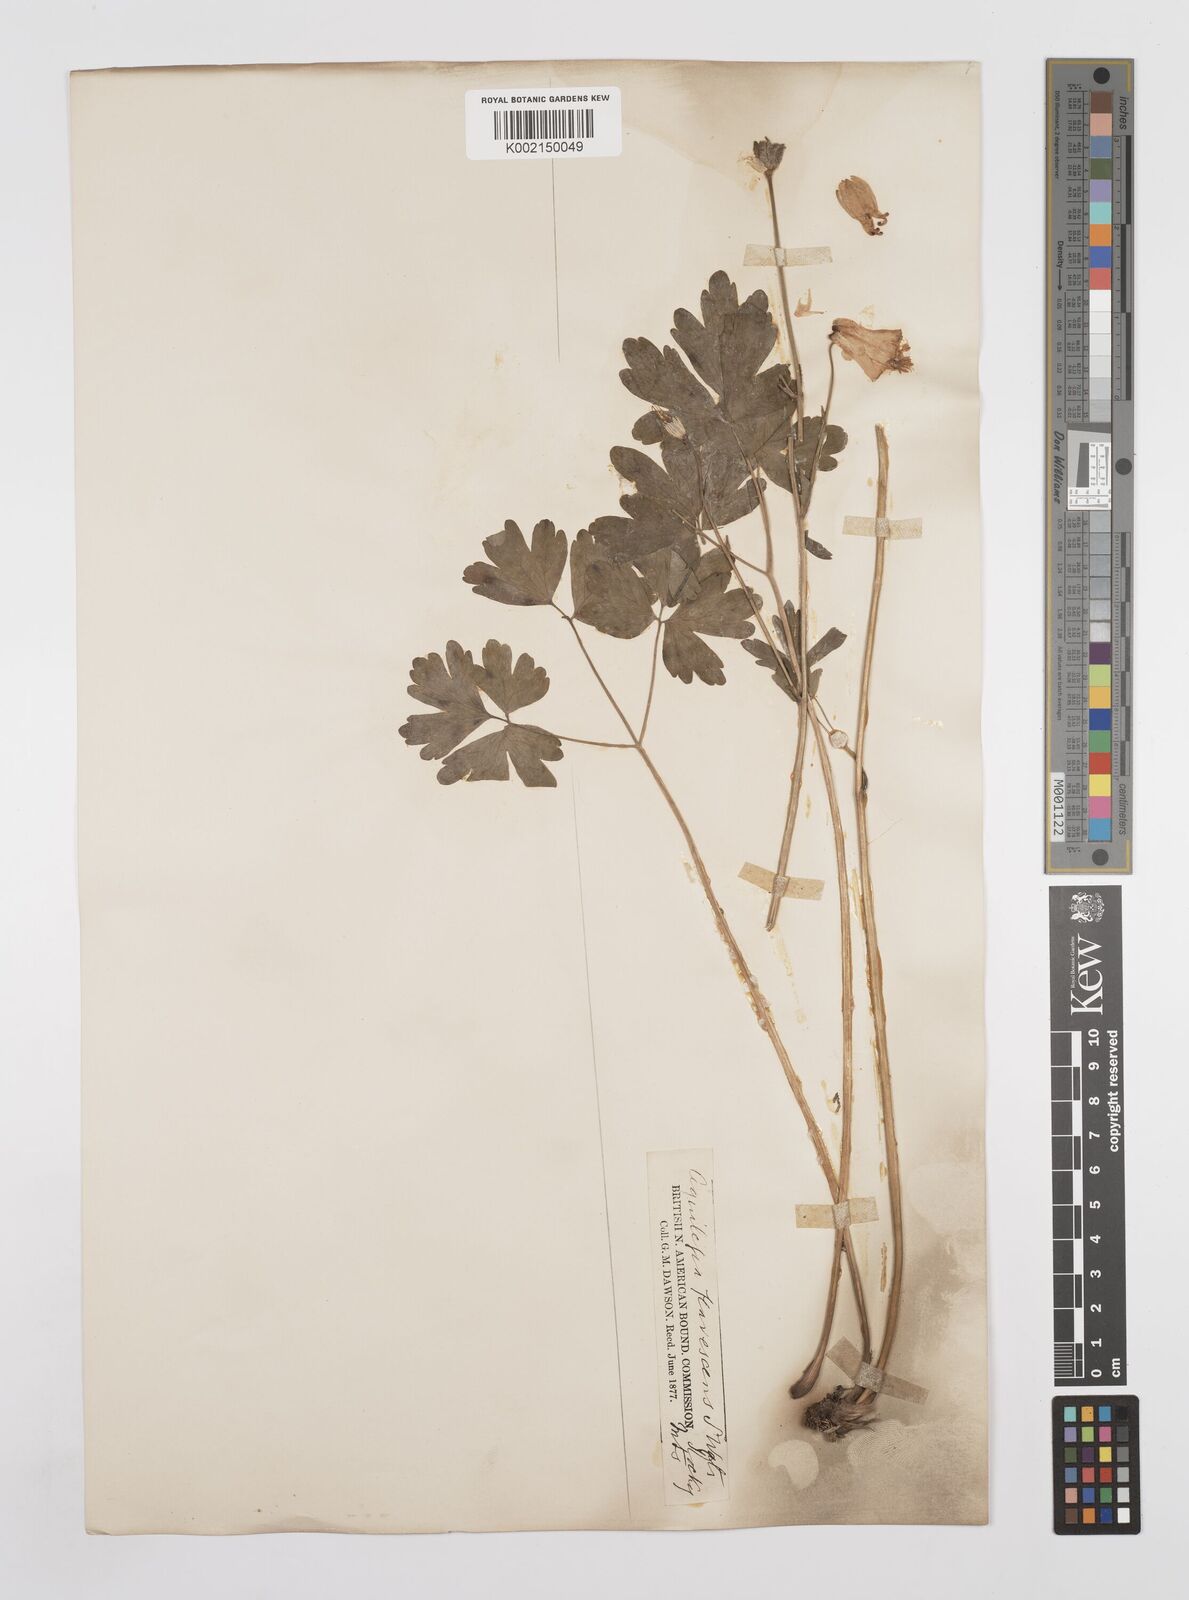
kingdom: Plantae
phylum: Tracheophyta
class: Magnoliopsida
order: Ranunculales
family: Ranunculaceae
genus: Aquilegia
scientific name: Aquilegia flavescens
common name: Yellow columbine
